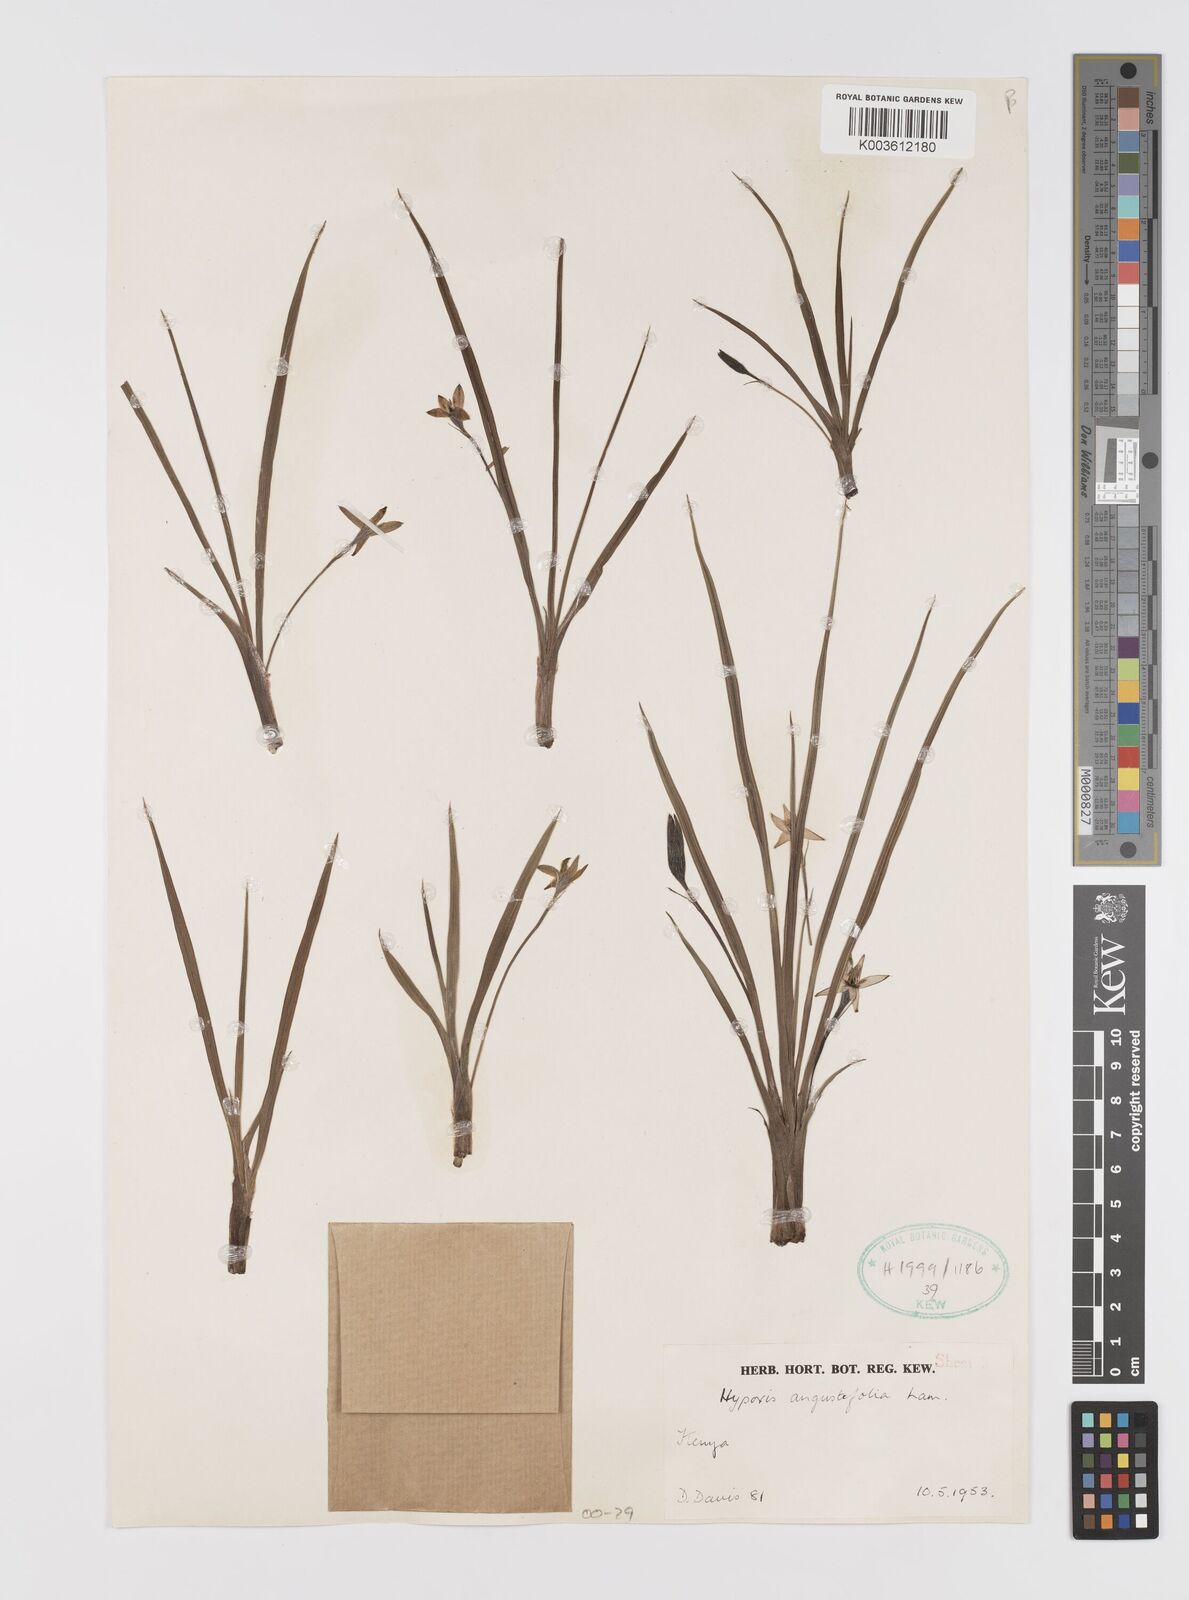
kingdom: Plantae
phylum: Tracheophyta
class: Liliopsida
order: Asparagales
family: Hypoxidaceae
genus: Hypoxis
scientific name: Hypoxis schimperi
